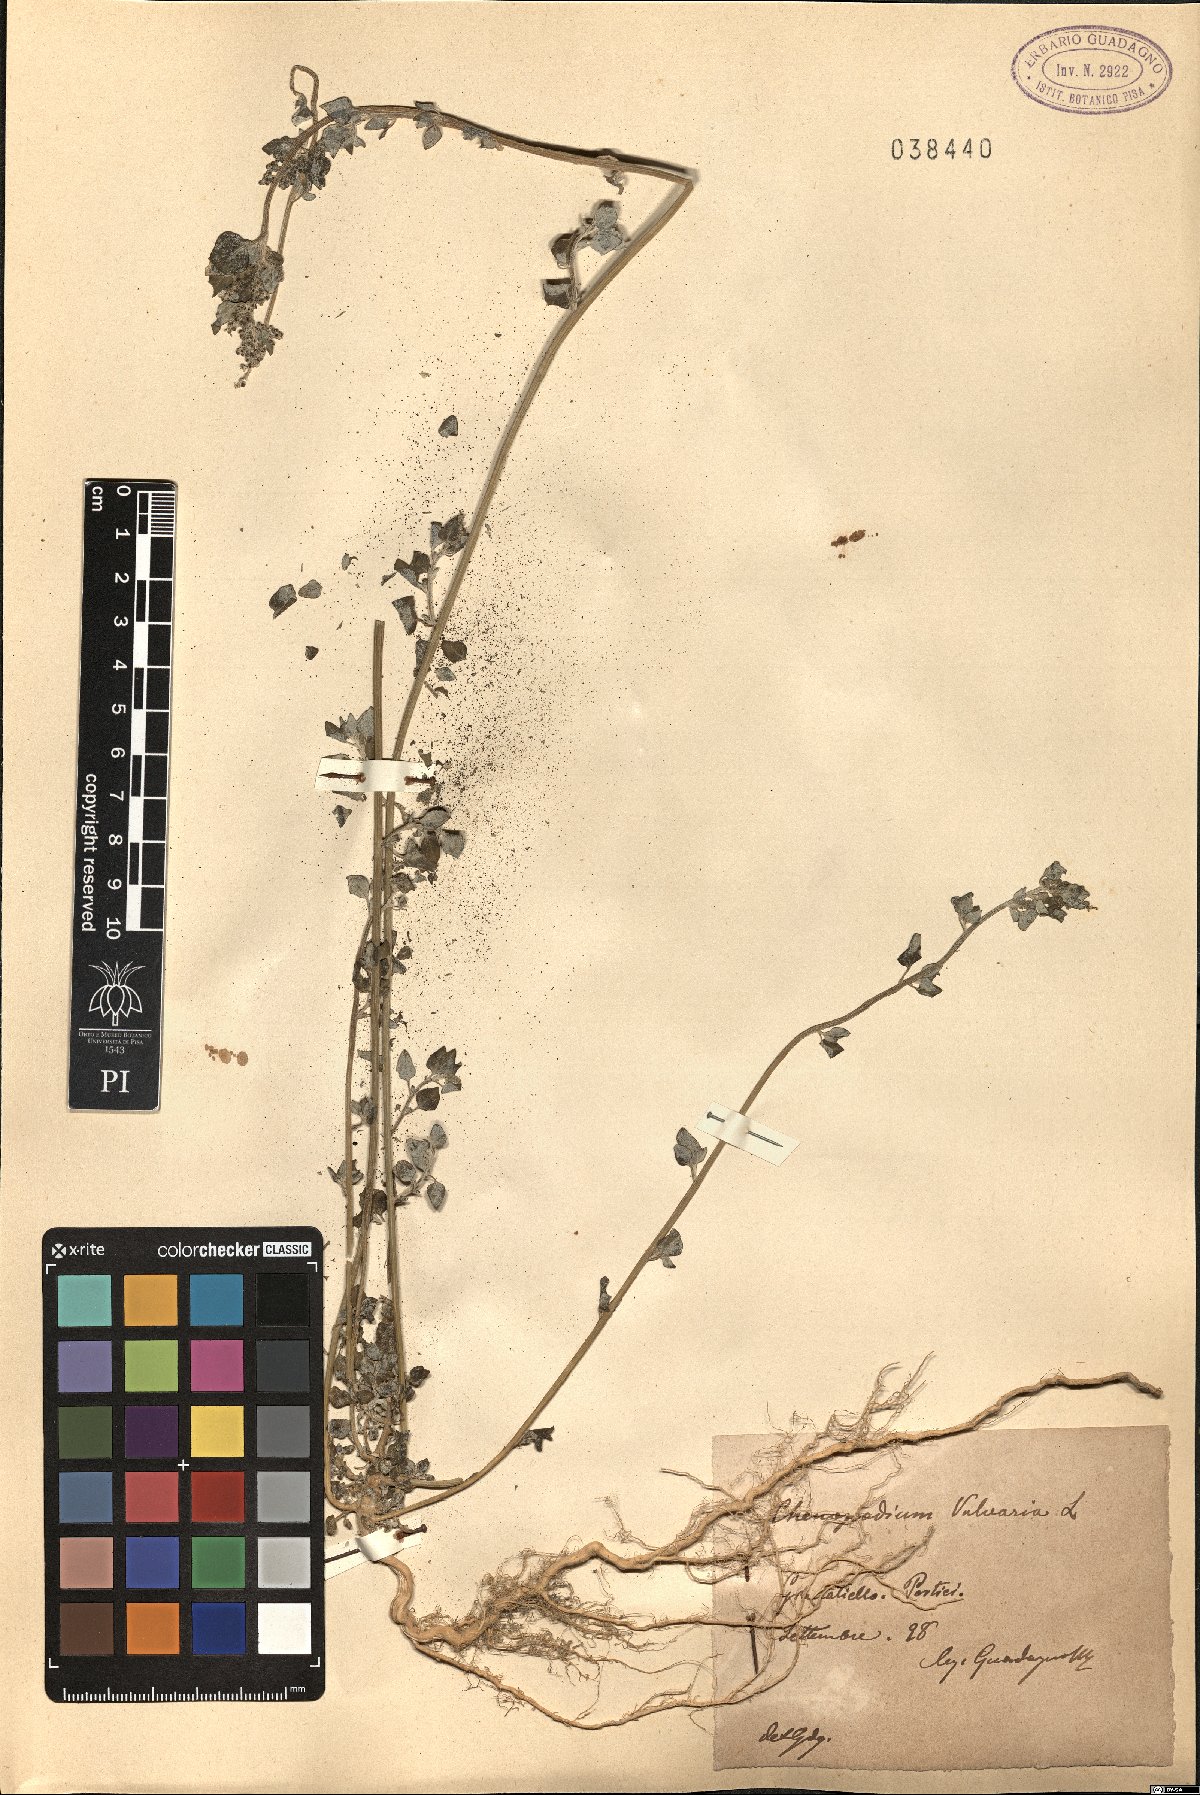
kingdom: Plantae
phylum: Tracheophyta
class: Magnoliopsida
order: Caryophyllales
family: Amaranthaceae
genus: Chenopodium
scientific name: Chenopodium vulvaria
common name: Stinking goosefoot
